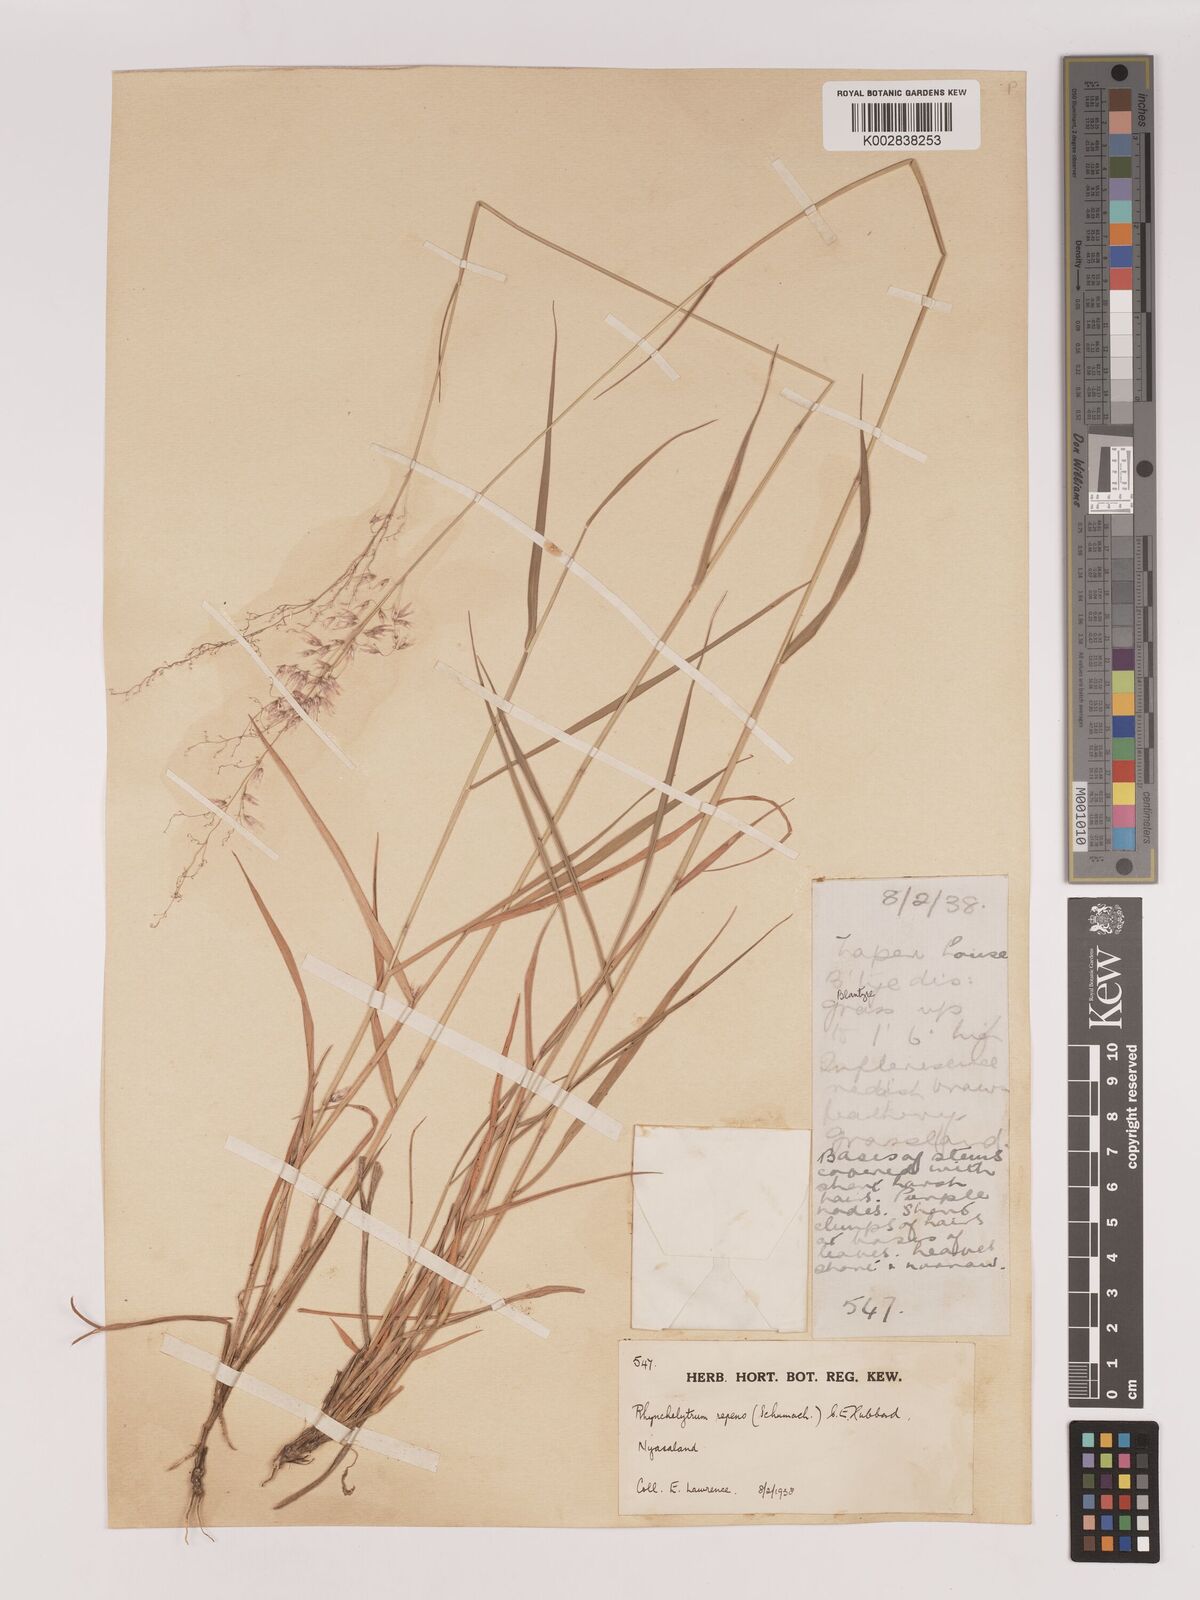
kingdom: Plantae
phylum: Tracheophyta
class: Liliopsida
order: Poales
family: Poaceae
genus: Melinis
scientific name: Melinis repens
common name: Rose natal grass
